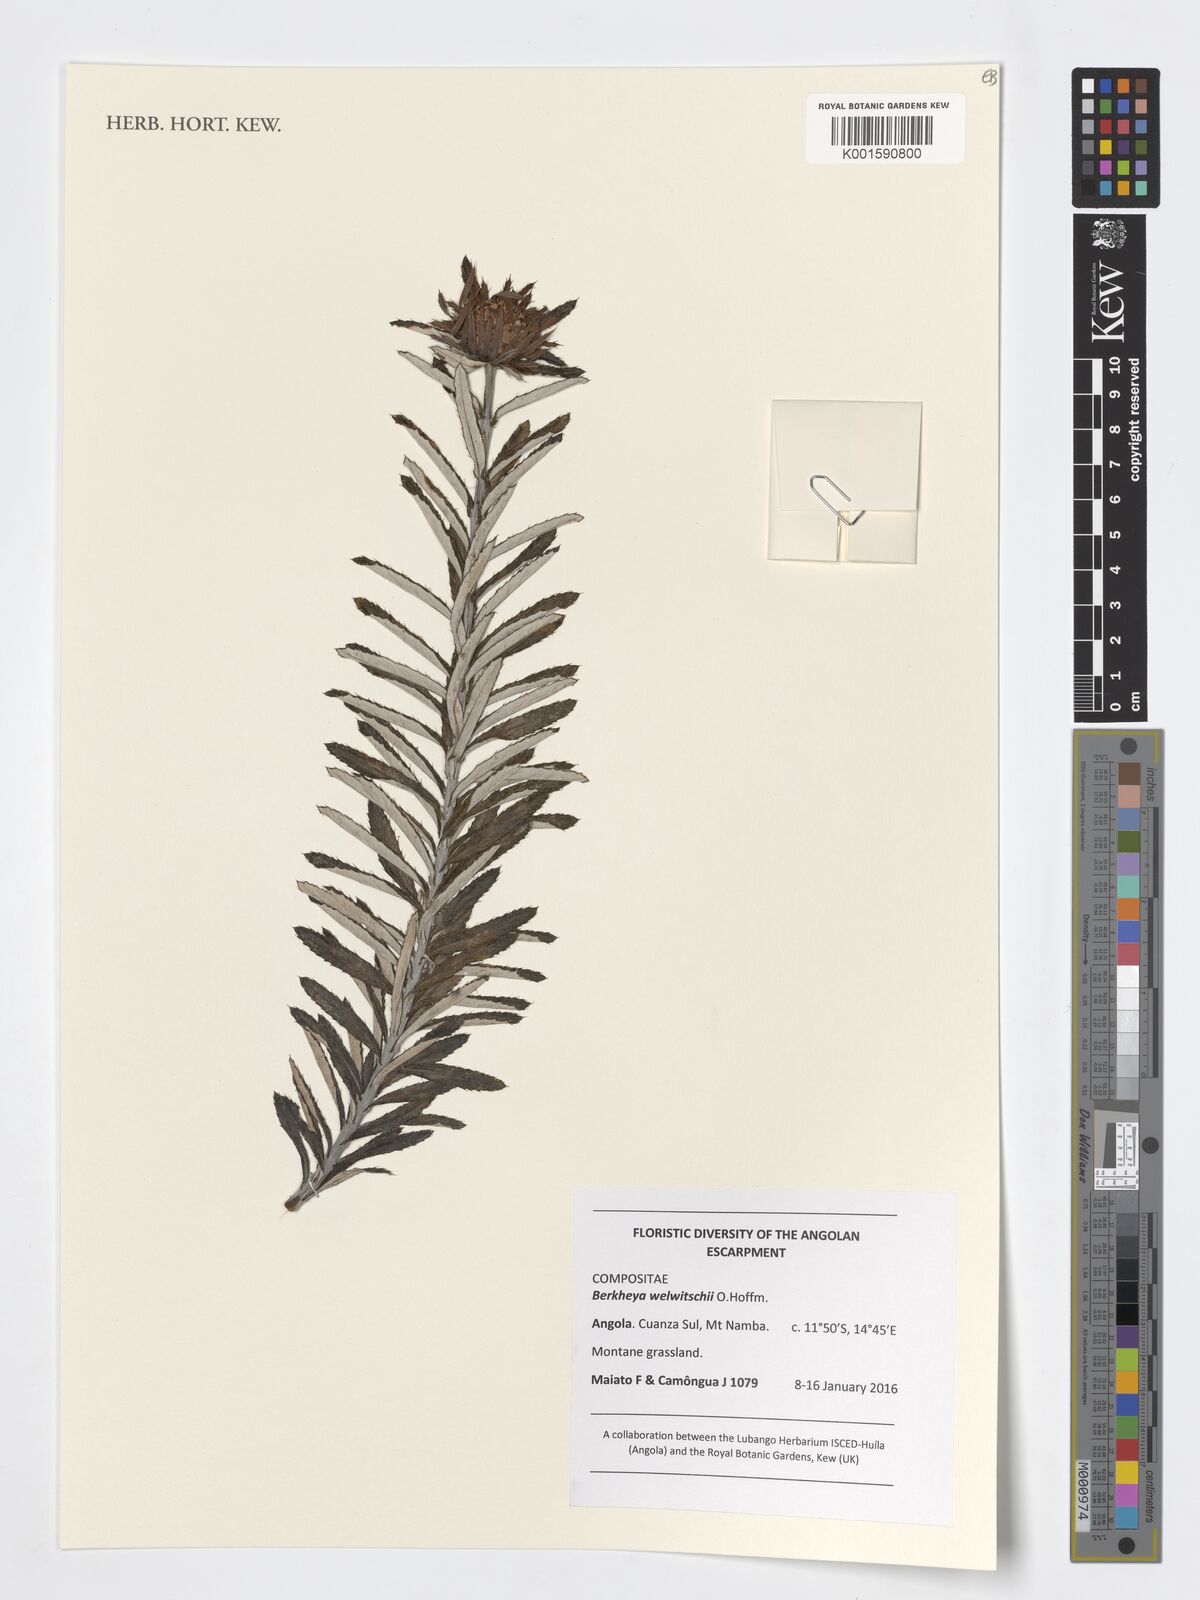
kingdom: Plantae
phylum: Tracheophyta
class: Magnoliopsida
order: Asterales
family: Asteraceae
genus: Berkheya
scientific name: Berkheya welwitschii
